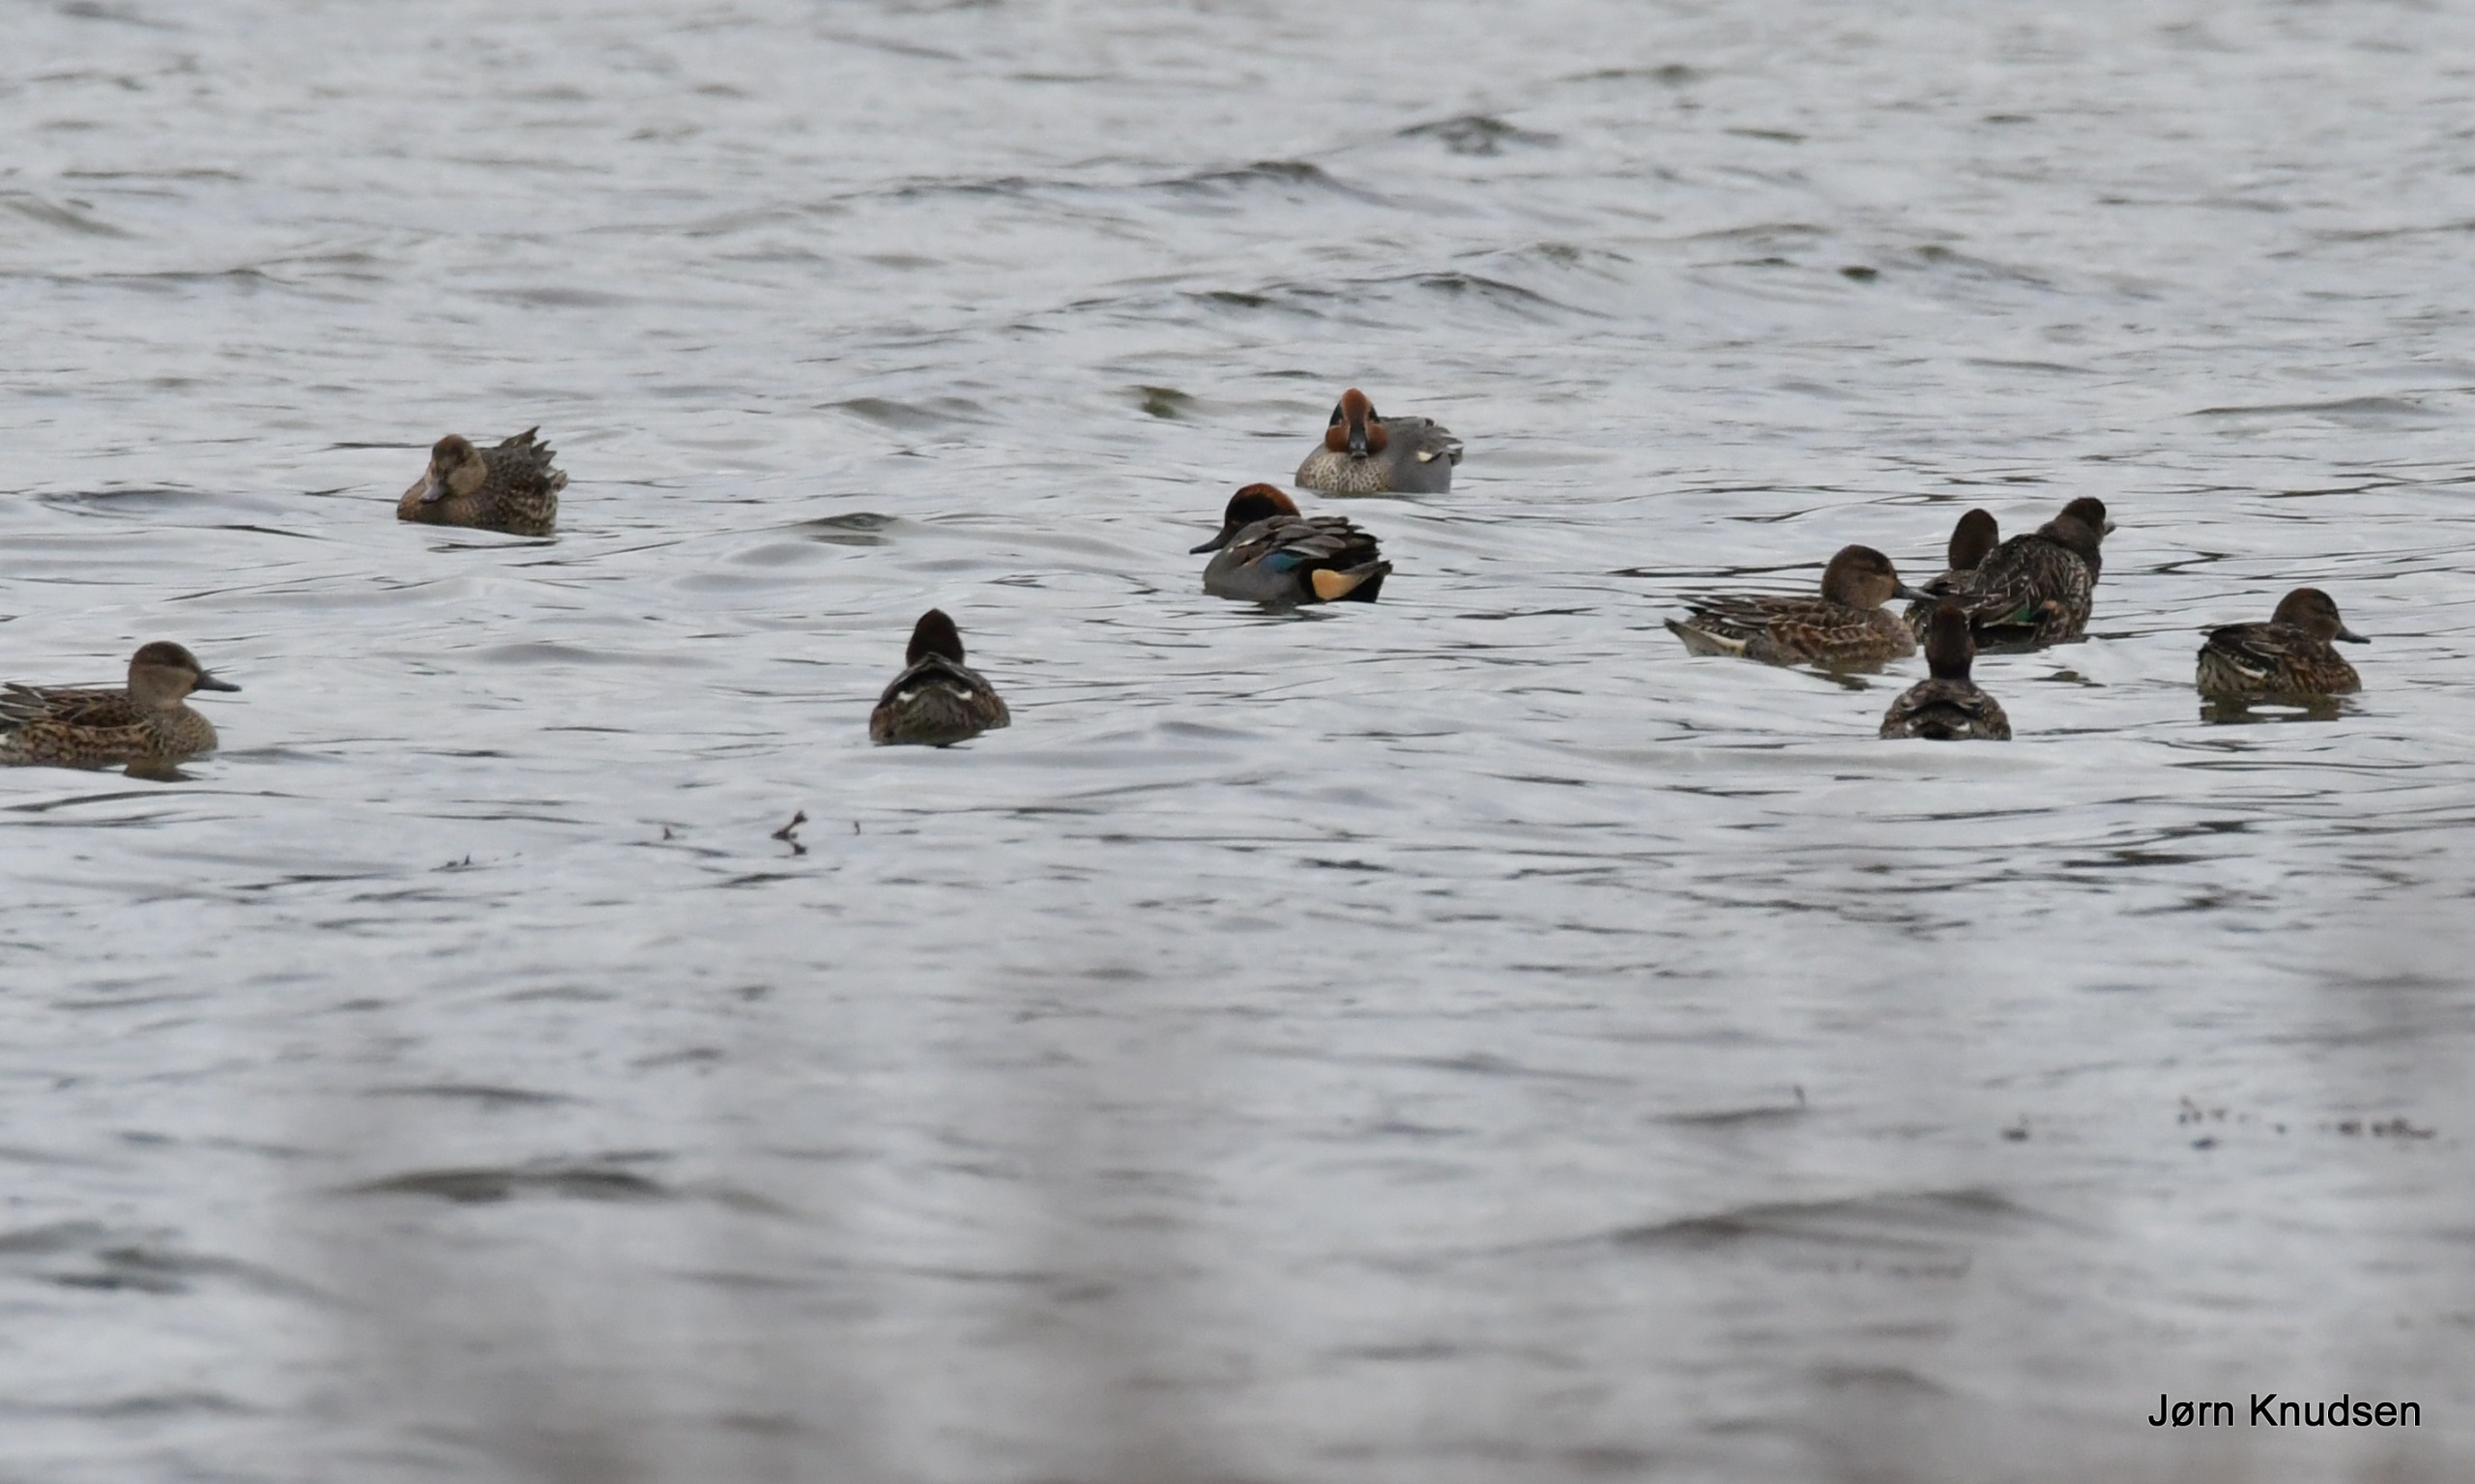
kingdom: Animalia
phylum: Chordata
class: Aves
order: Anseriformes
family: Anatidae
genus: Anas
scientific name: Anas crecca
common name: Krikand
